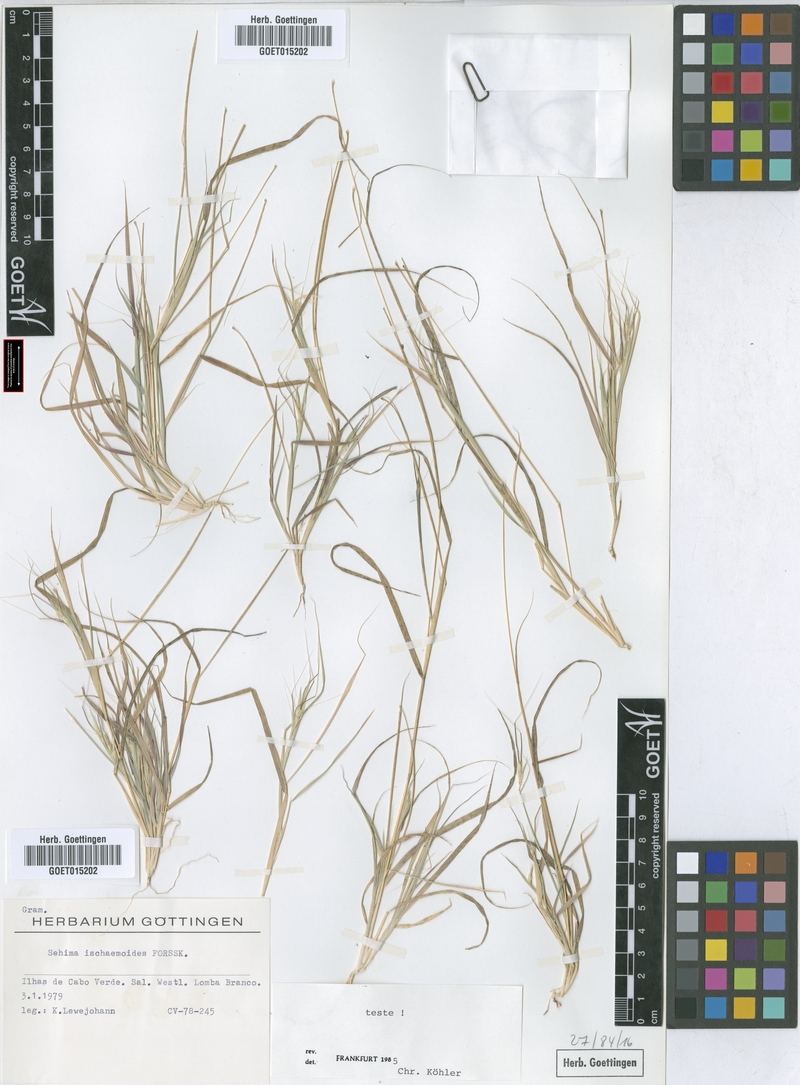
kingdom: Plantae
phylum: Tracheophyta
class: Liliopsida
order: Poales
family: Poaceae
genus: Sehima
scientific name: Sehima ischaemoides
